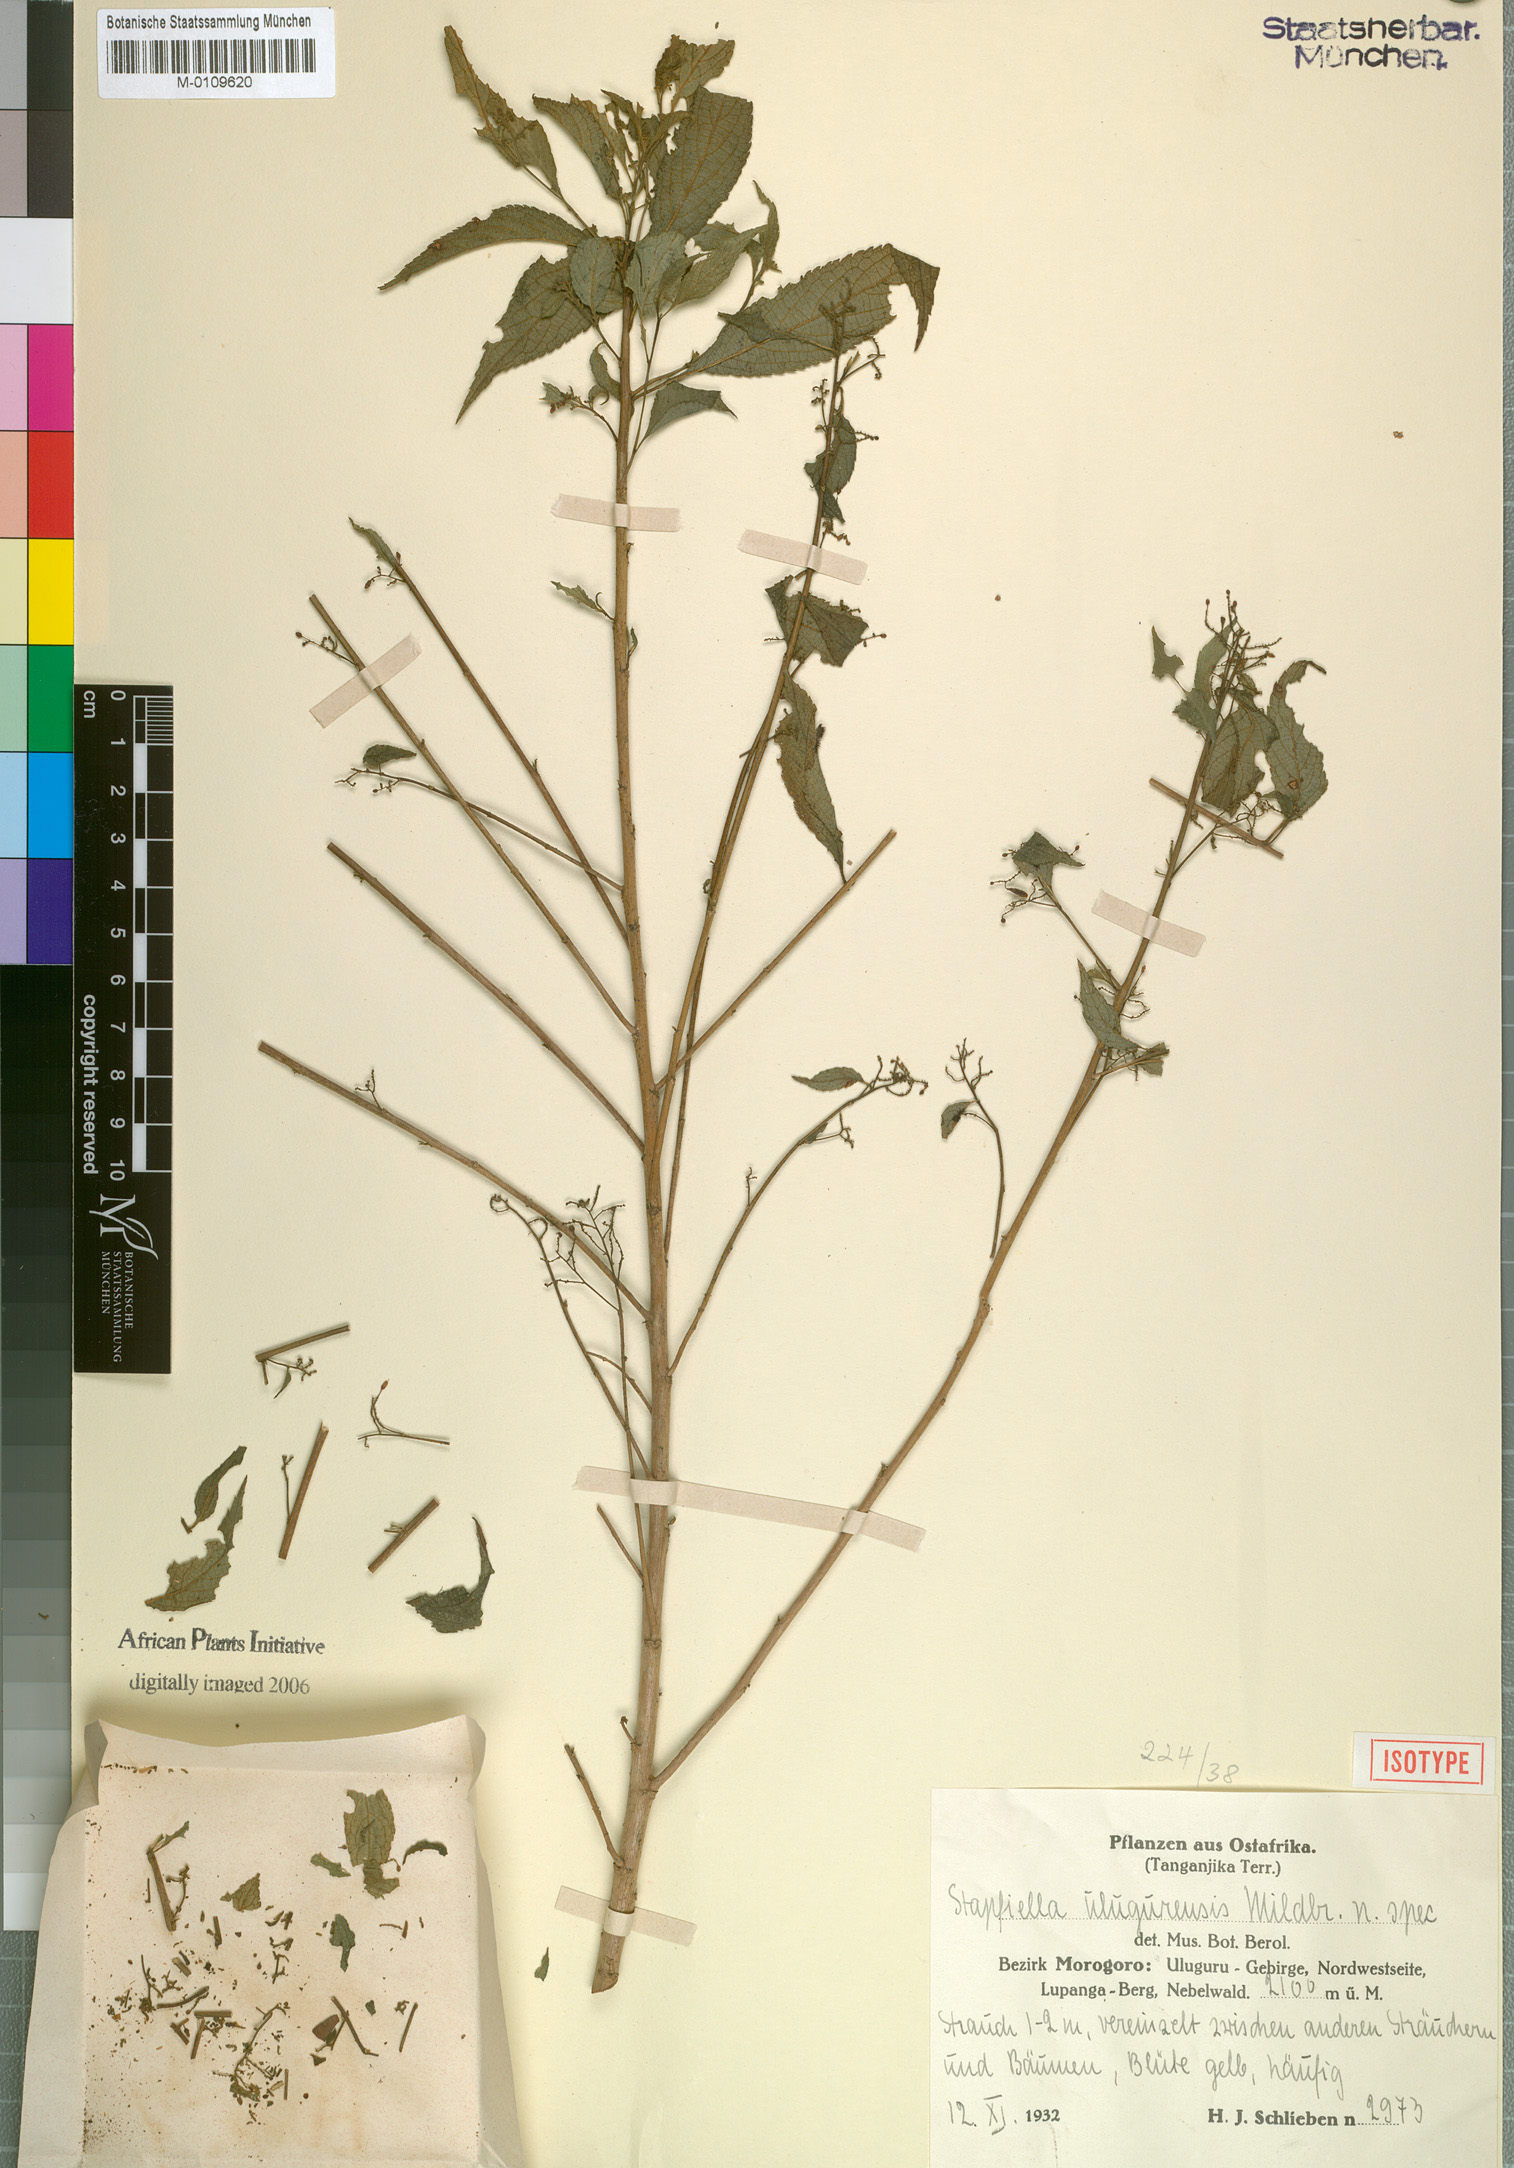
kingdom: Plantae
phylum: Tracheophyta
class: Magnoliopsida
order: Malpighiales
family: Turneraceae
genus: Stapfiella
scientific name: Stapfiella ulugurica
